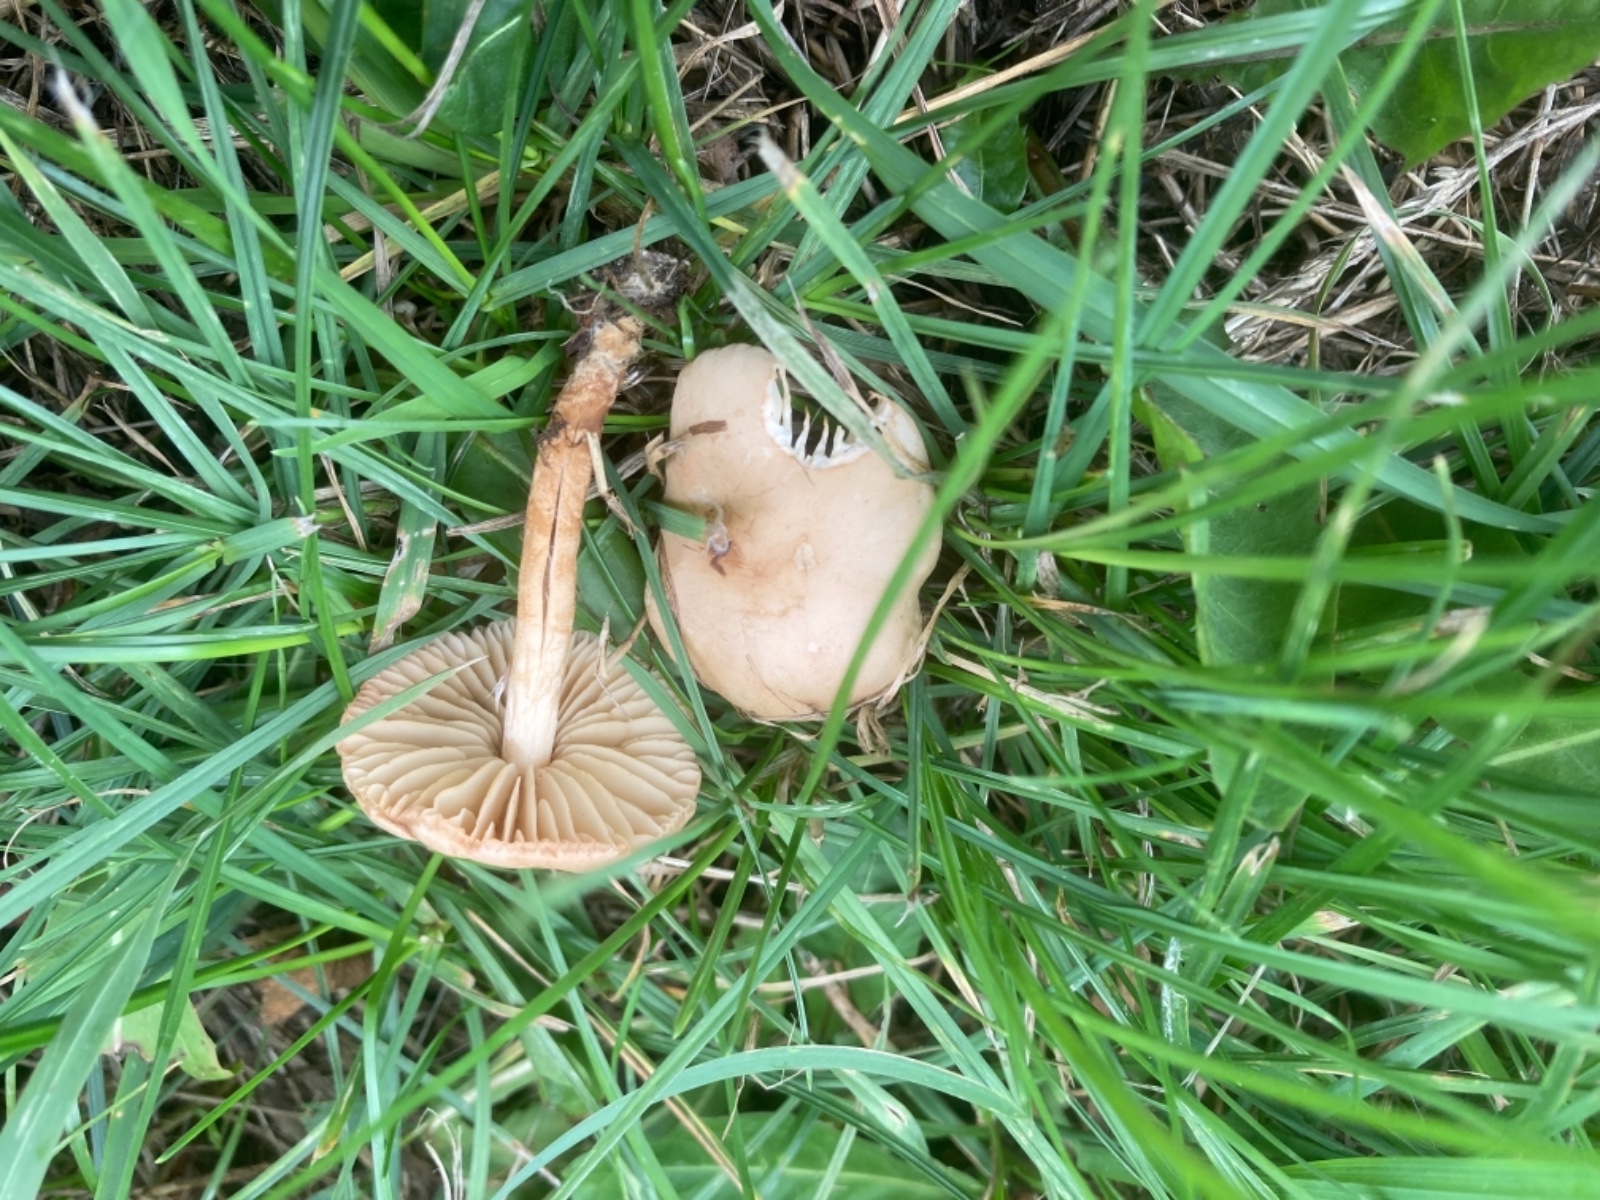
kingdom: Fungi
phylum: Basidiomycota
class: Agaricomycetes
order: Agaricales
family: Marasmiaceae
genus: Marasmius
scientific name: Marasmius oreades
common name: elledans-bruskhat
